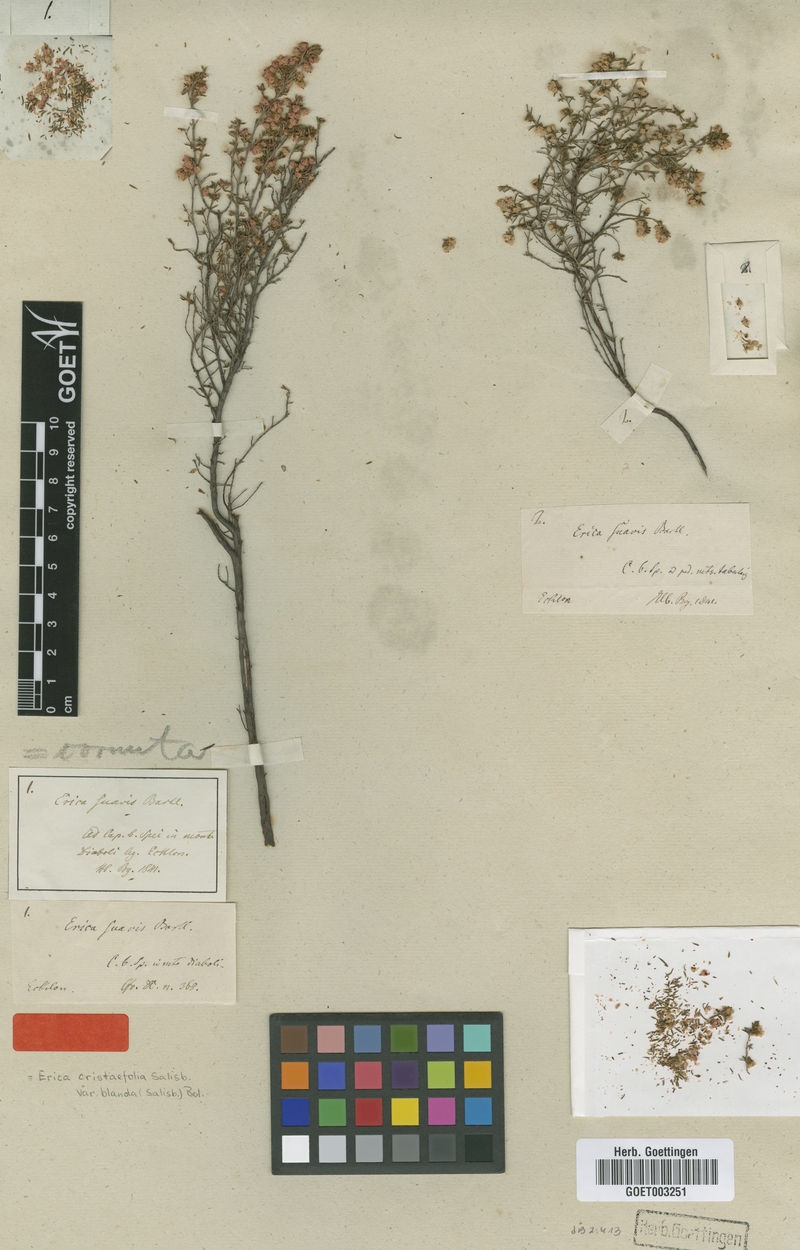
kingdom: Plantae
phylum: Tracheophyta
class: Magnoliopsida
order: Ericales
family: Ericaceae
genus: Erica
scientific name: Erica cristiflora
